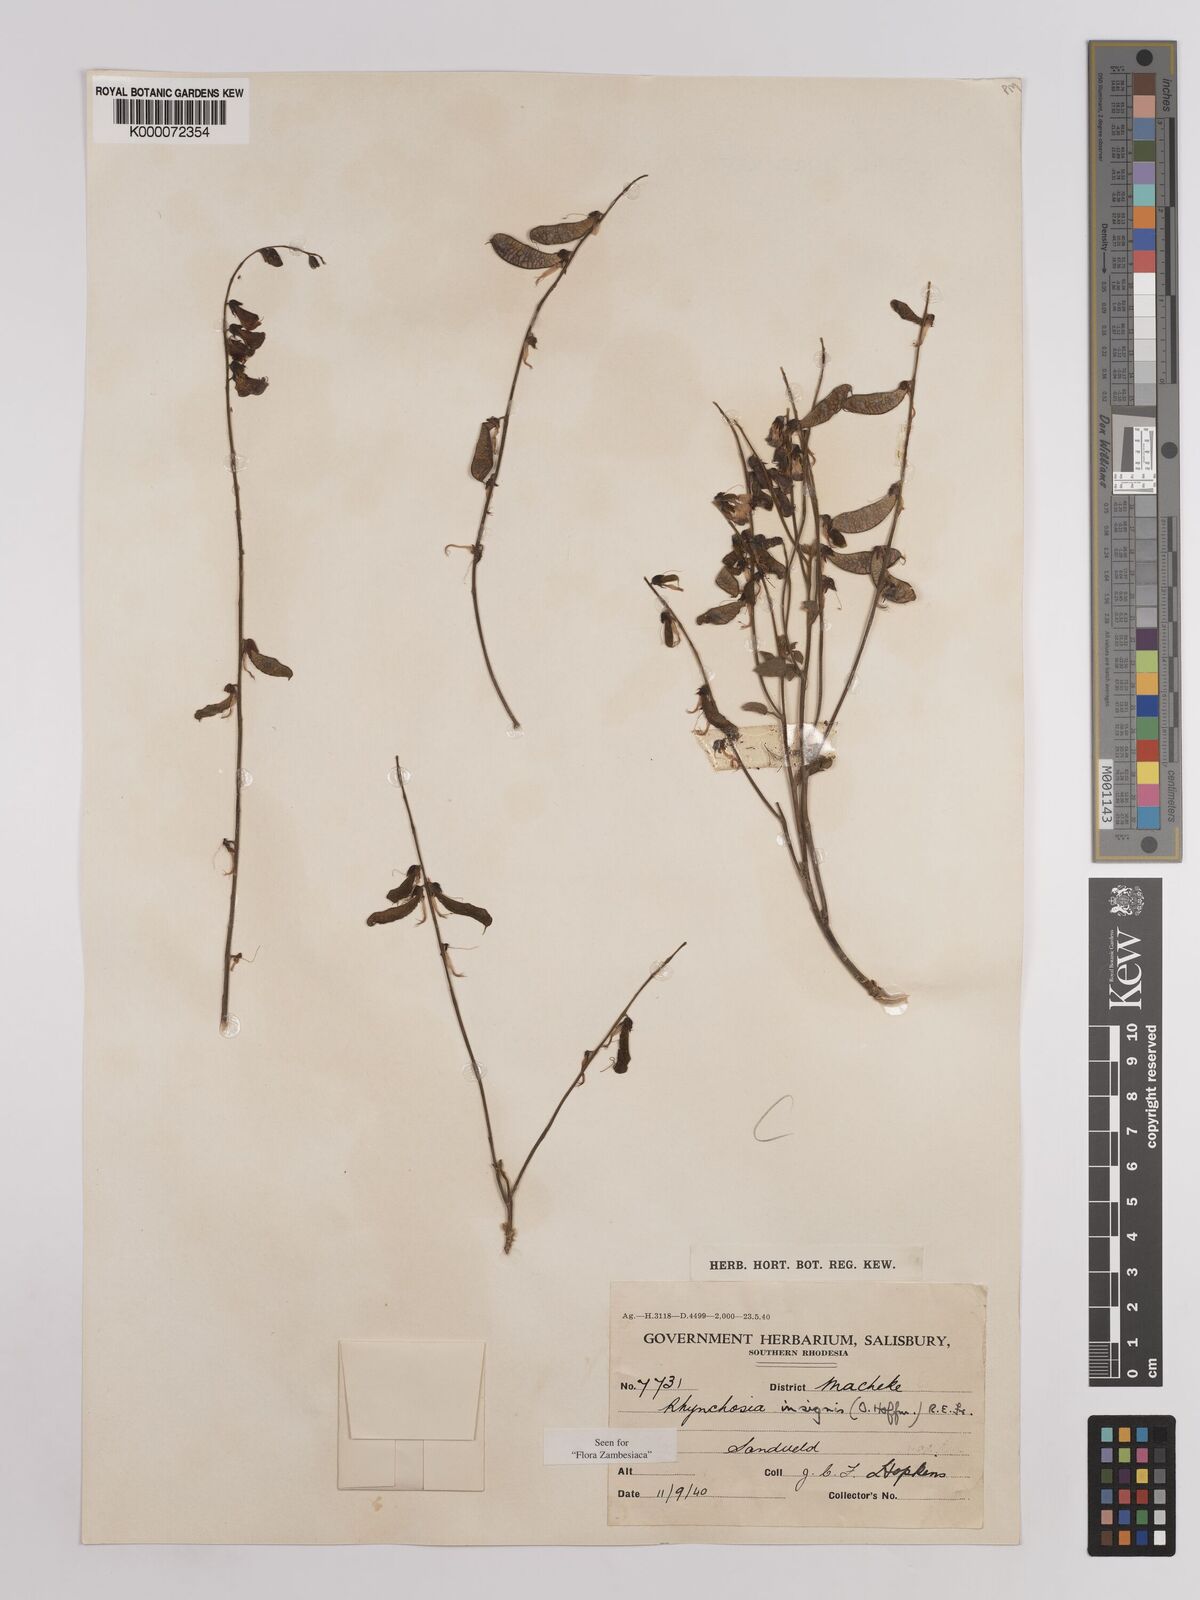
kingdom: Plantae
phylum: Tracheophyta
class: Magnoliopsida
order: Fabales
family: Fabaceae
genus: Rhynchosia
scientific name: Rhynchosia insignis
